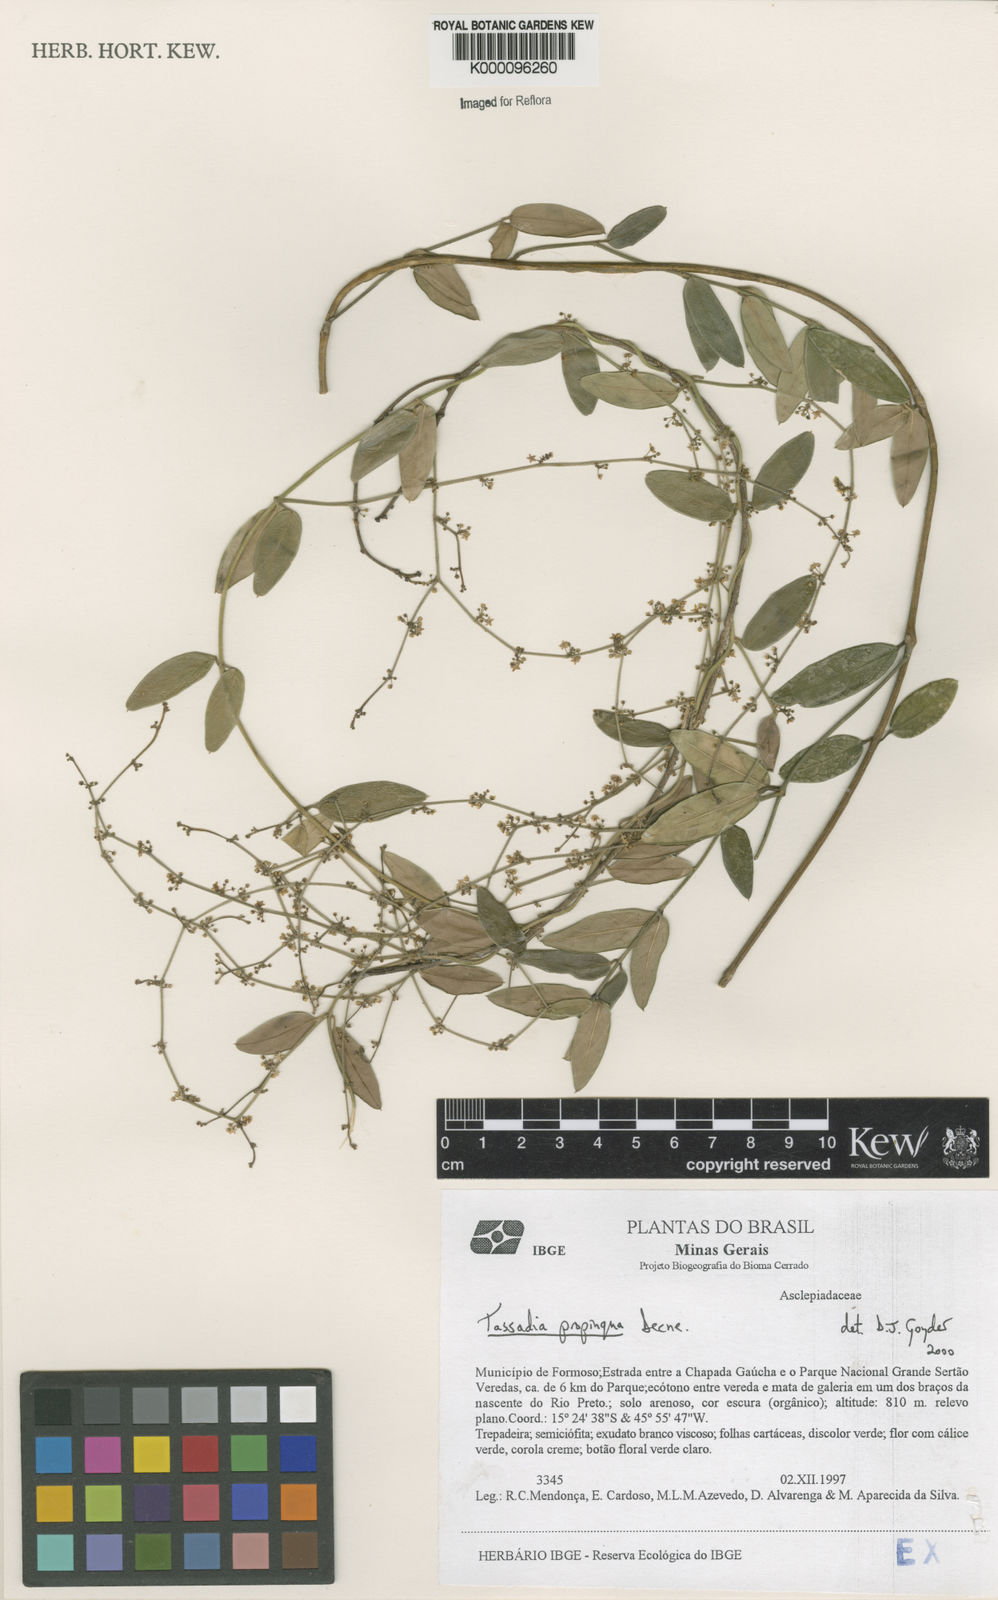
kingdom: Plantae
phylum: Tracheophyta
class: Magnoliopsida
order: Gentianales
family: Apocynaceae
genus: Tassadia
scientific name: Tassadia propinqua
